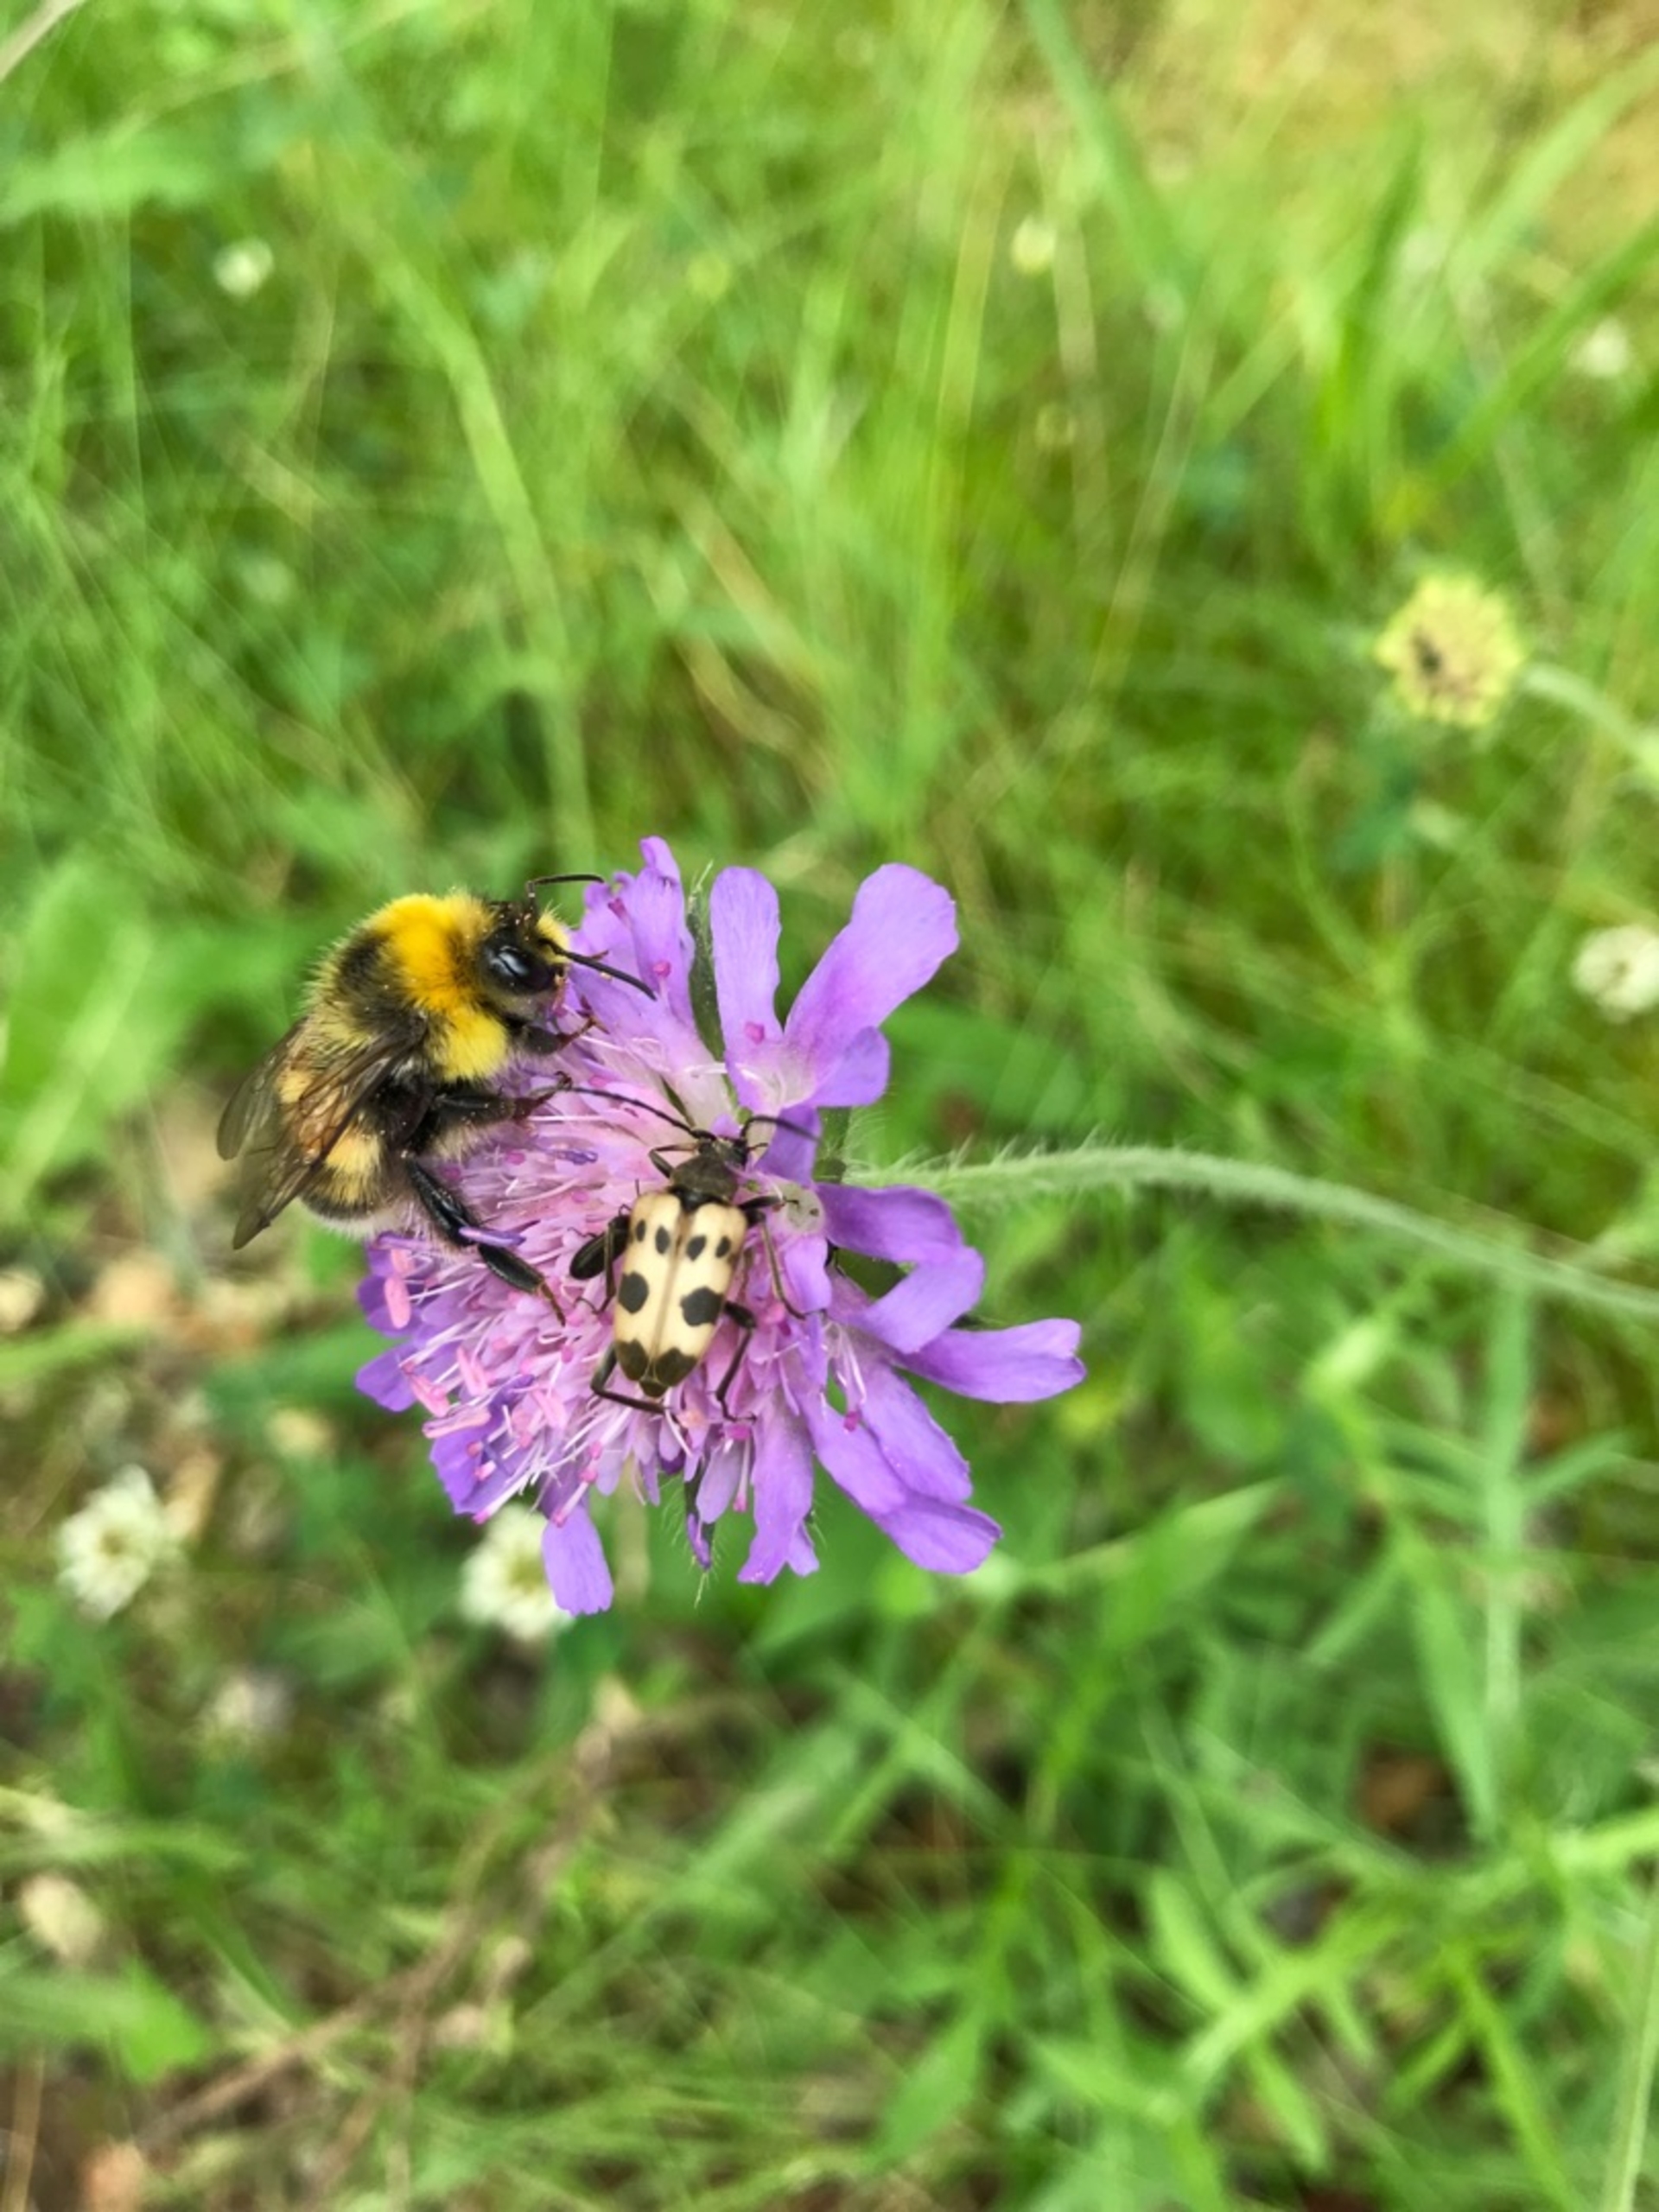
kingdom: Animalia
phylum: Arthropoda
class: Insecta
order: Coleoptera
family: Cerambycidae
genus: Pachytodes
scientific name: Pachytodes cerambyciformis
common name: Jysk blomsterbuk
